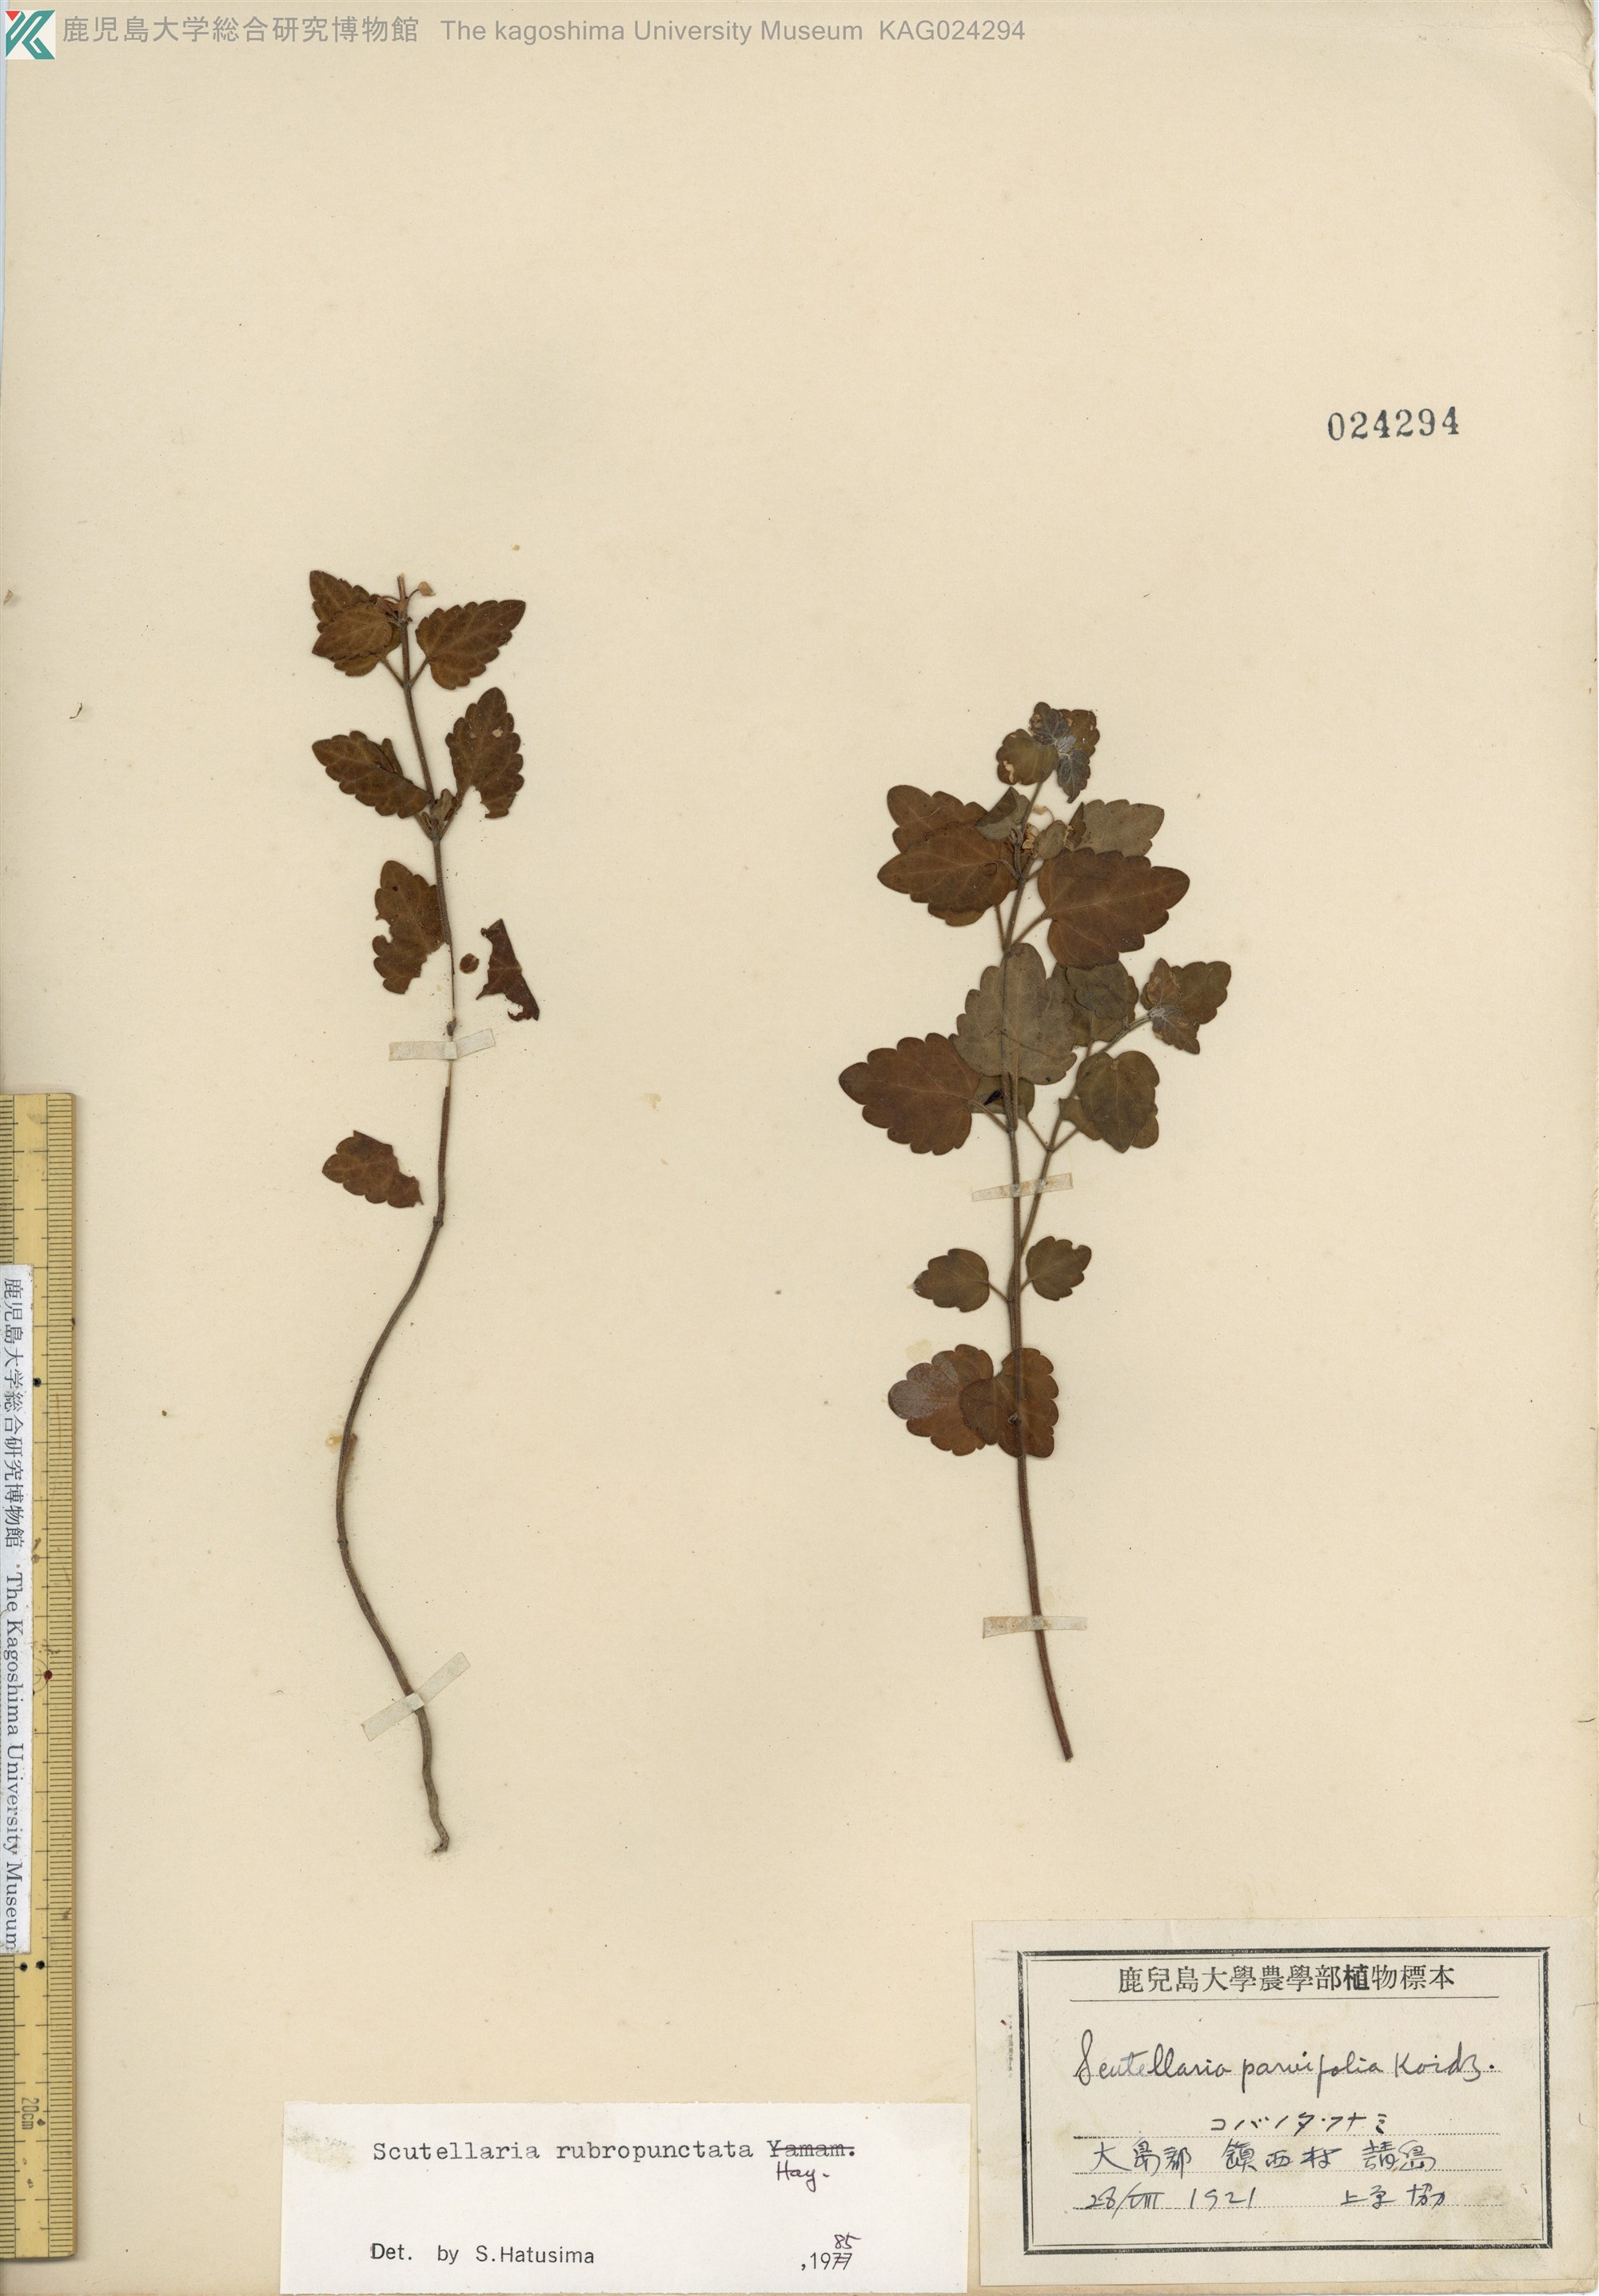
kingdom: Plantae
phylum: Tracheophyta
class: Magnoliopsida
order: Lamiales
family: Lamiaceae
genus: Scutellaria
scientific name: Scutellaria rubropunctata
